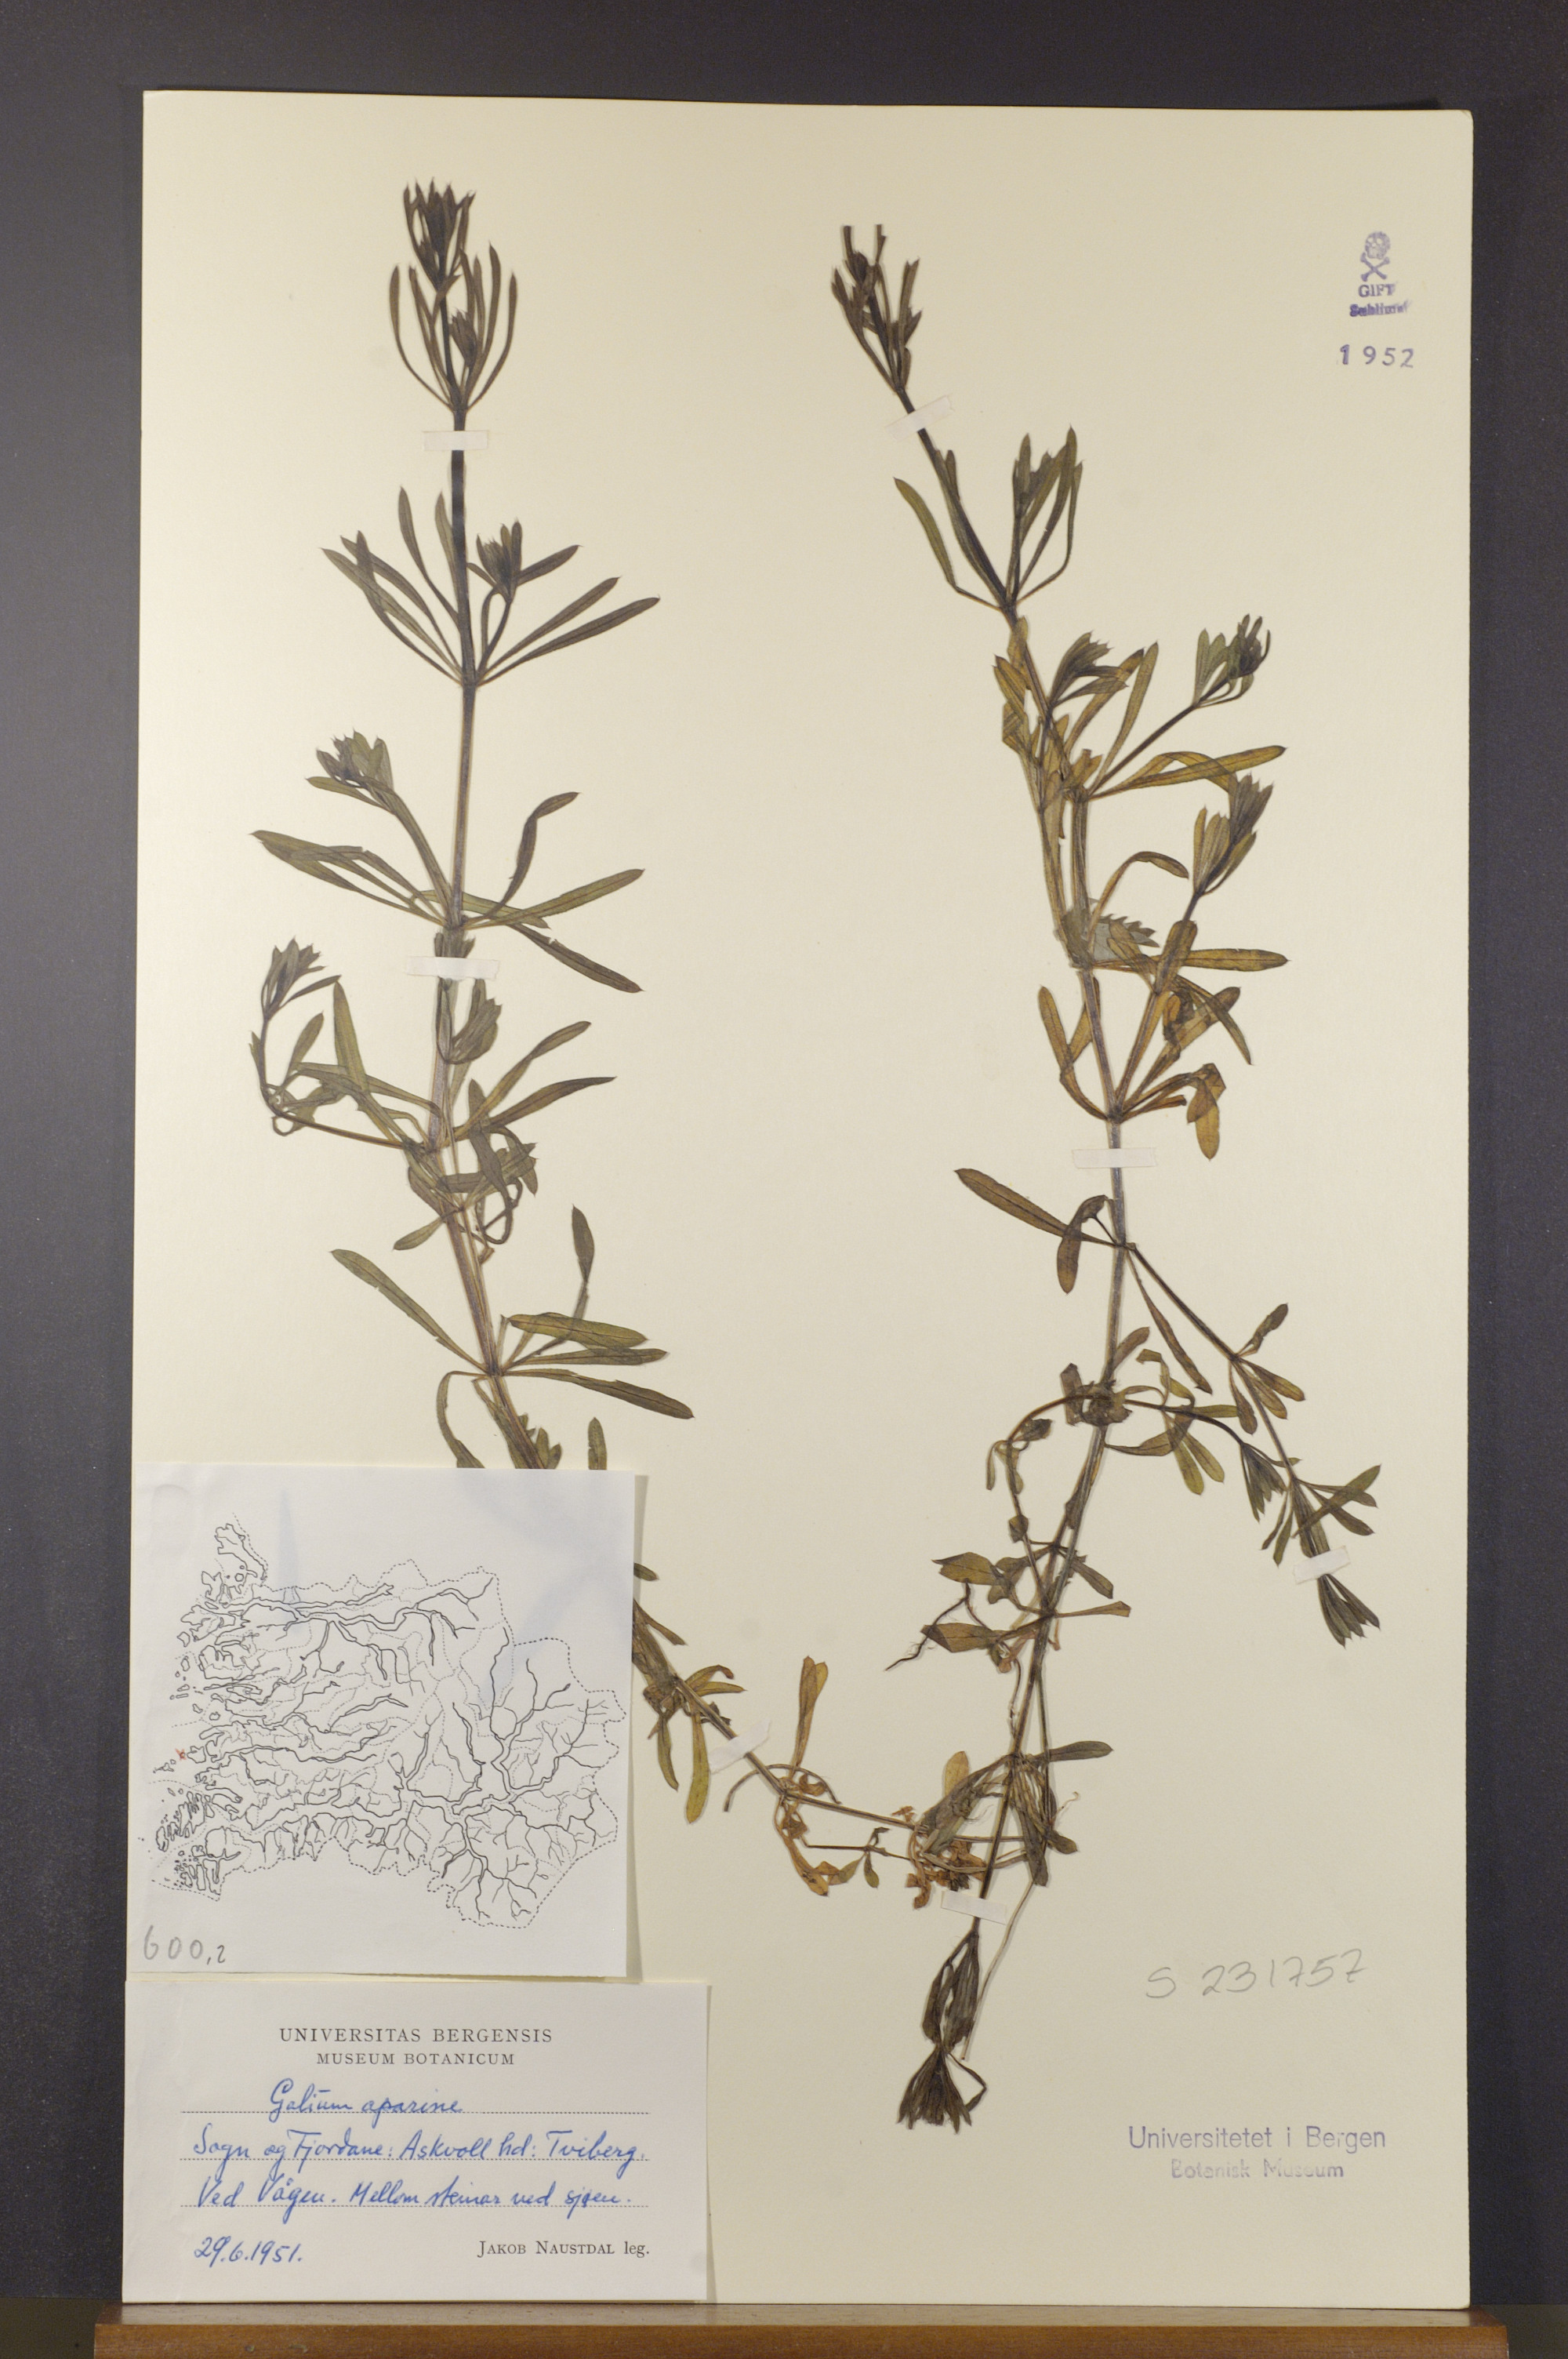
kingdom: Plantae
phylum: Tracheophyta
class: Magnoliopsida
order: Gentianales
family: Rubiaceae
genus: Galium
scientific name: Galium aparine
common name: Cleavers
